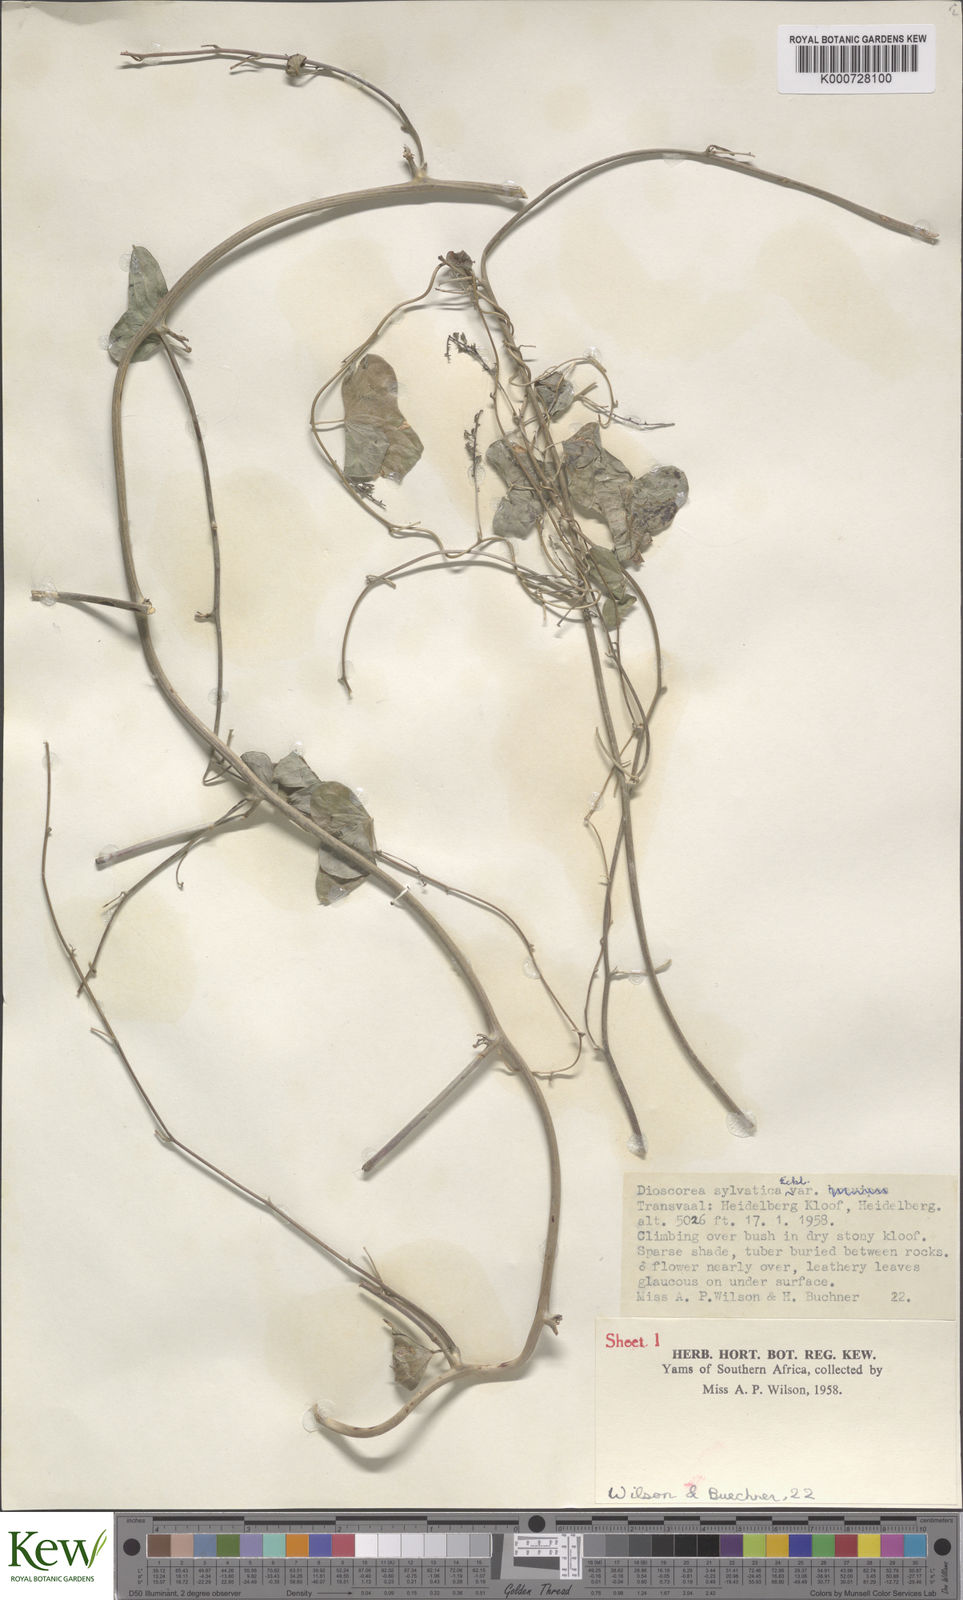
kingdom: Plantae
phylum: Tracheophyta
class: Liliopsida
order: Dioscoreales
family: Dioscoreaceae
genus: Dioscorea
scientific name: Dioscorea sylvatica
